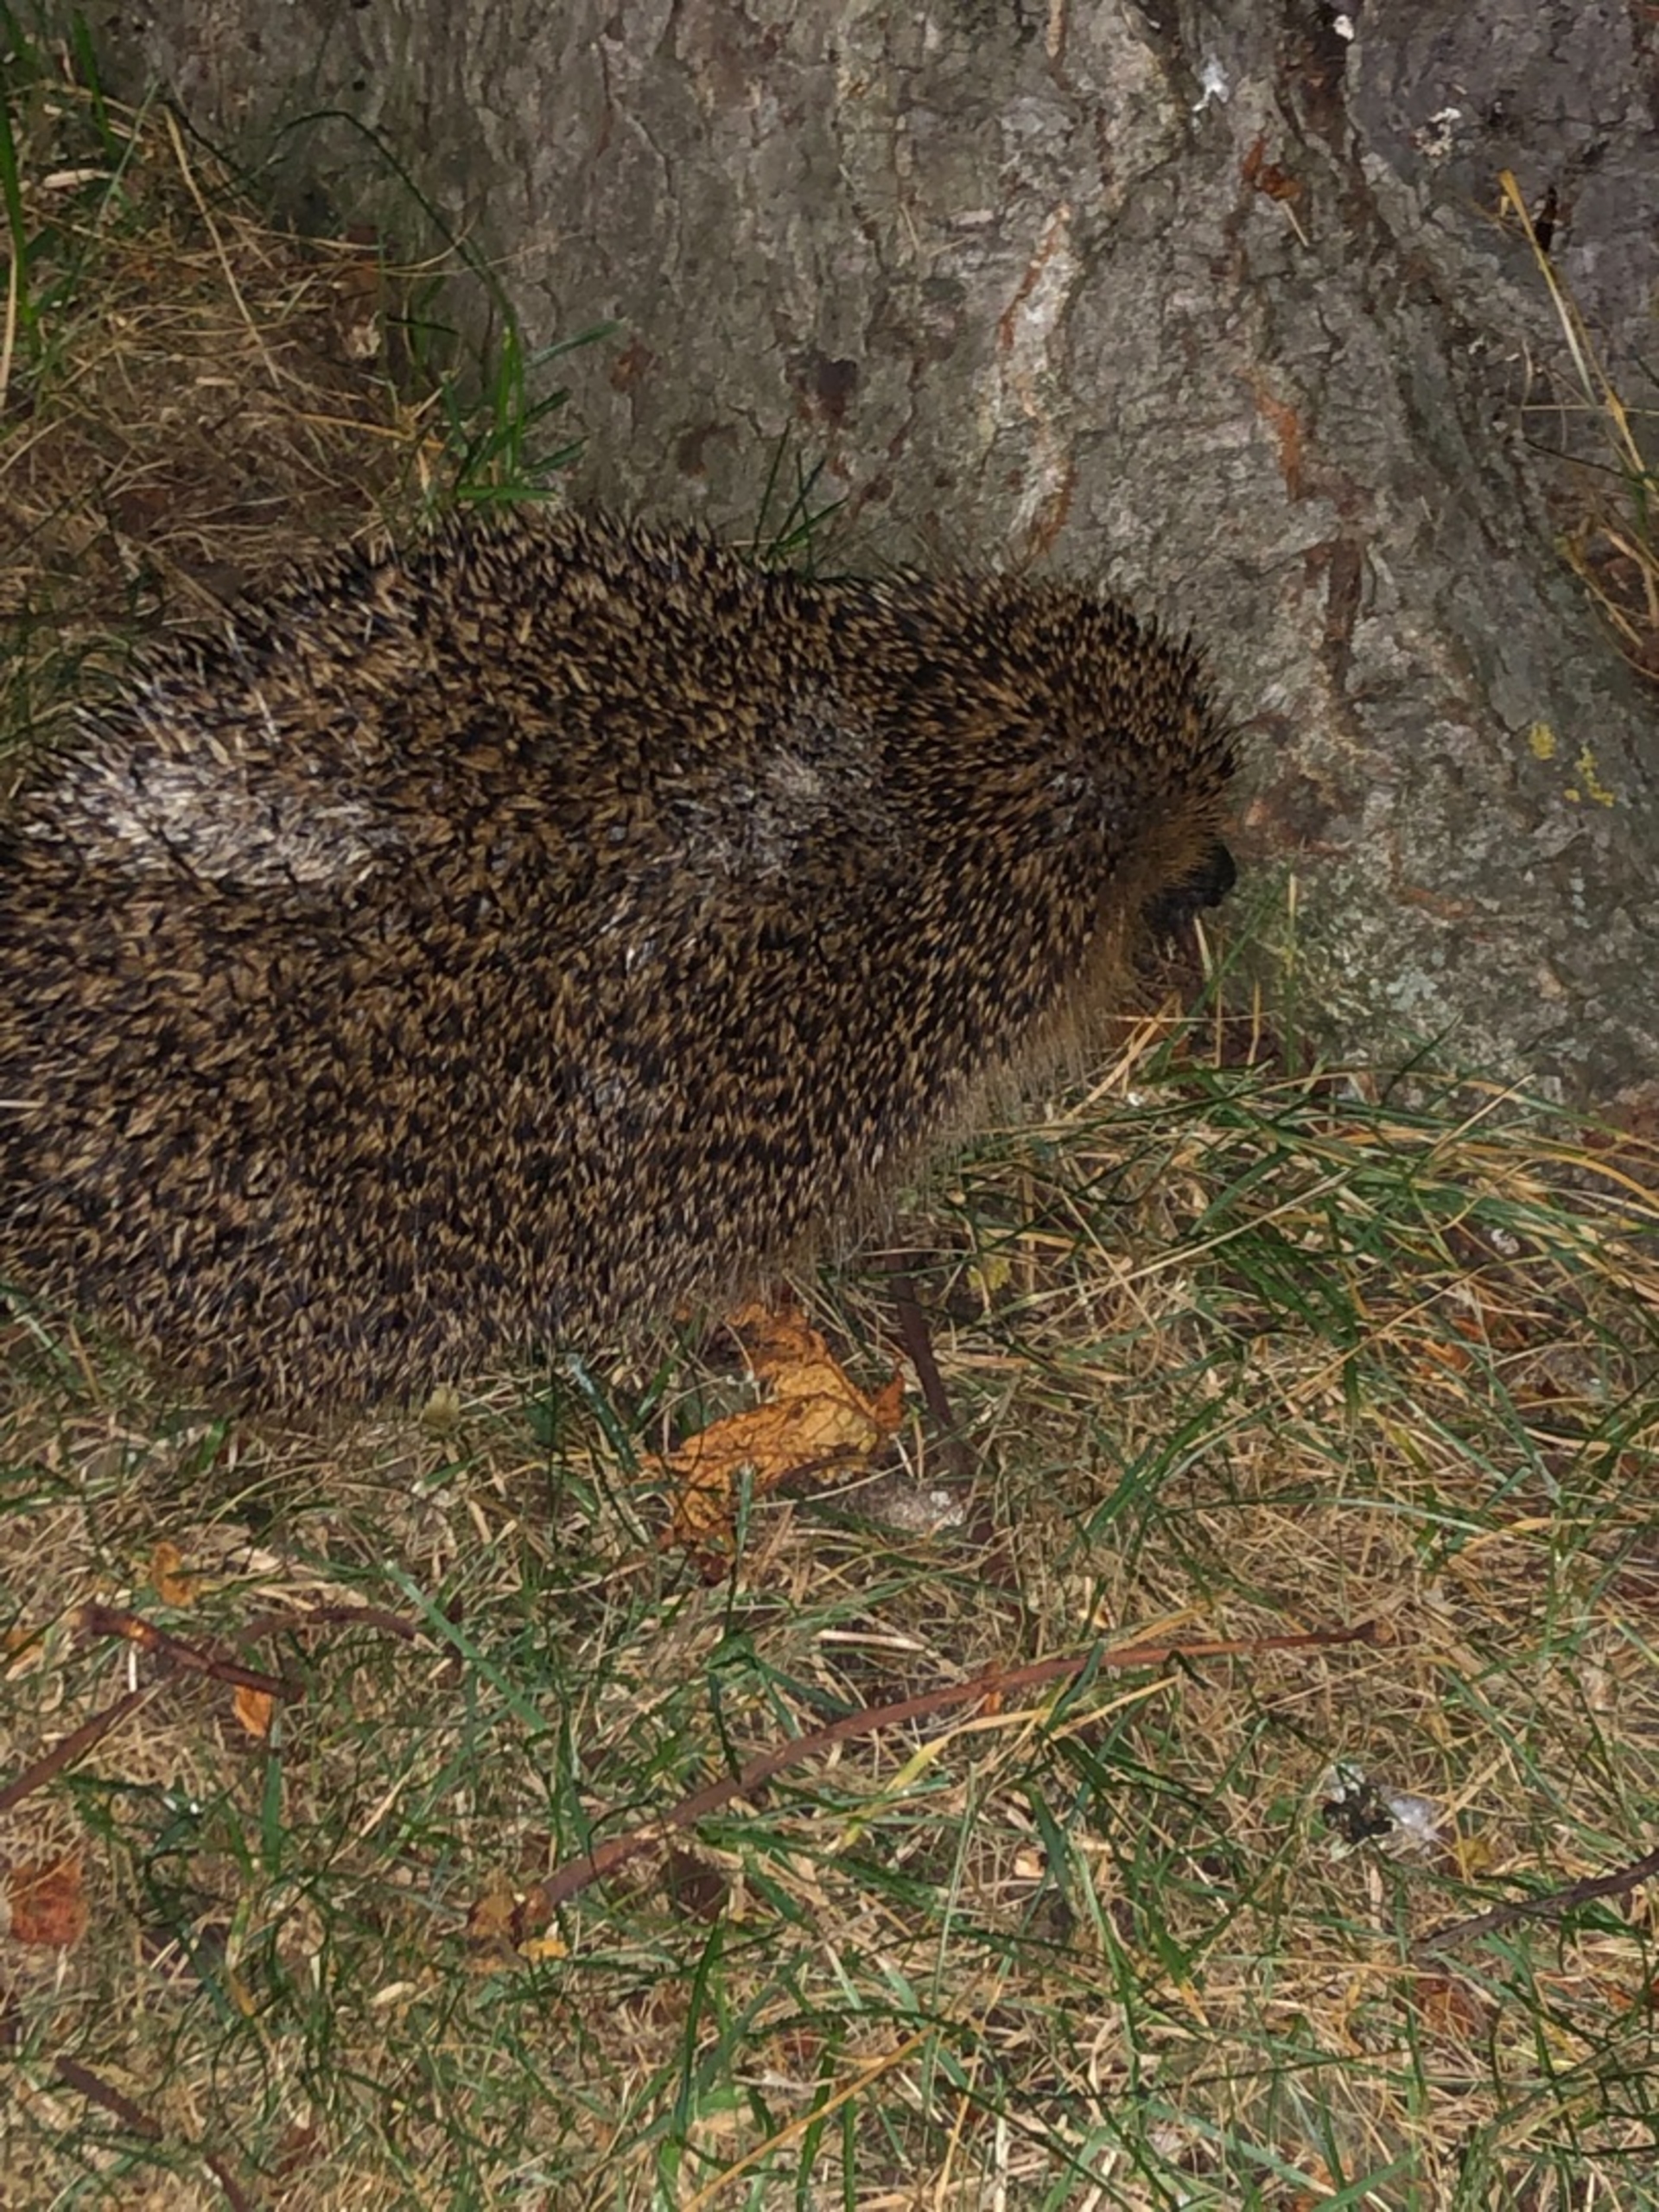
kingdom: Animalia
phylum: Chordata
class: Mammalia
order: Erinaceomorpha
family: Erinaceidae
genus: Erinaceus
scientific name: Erinaceus europaeus
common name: Pindsvin
